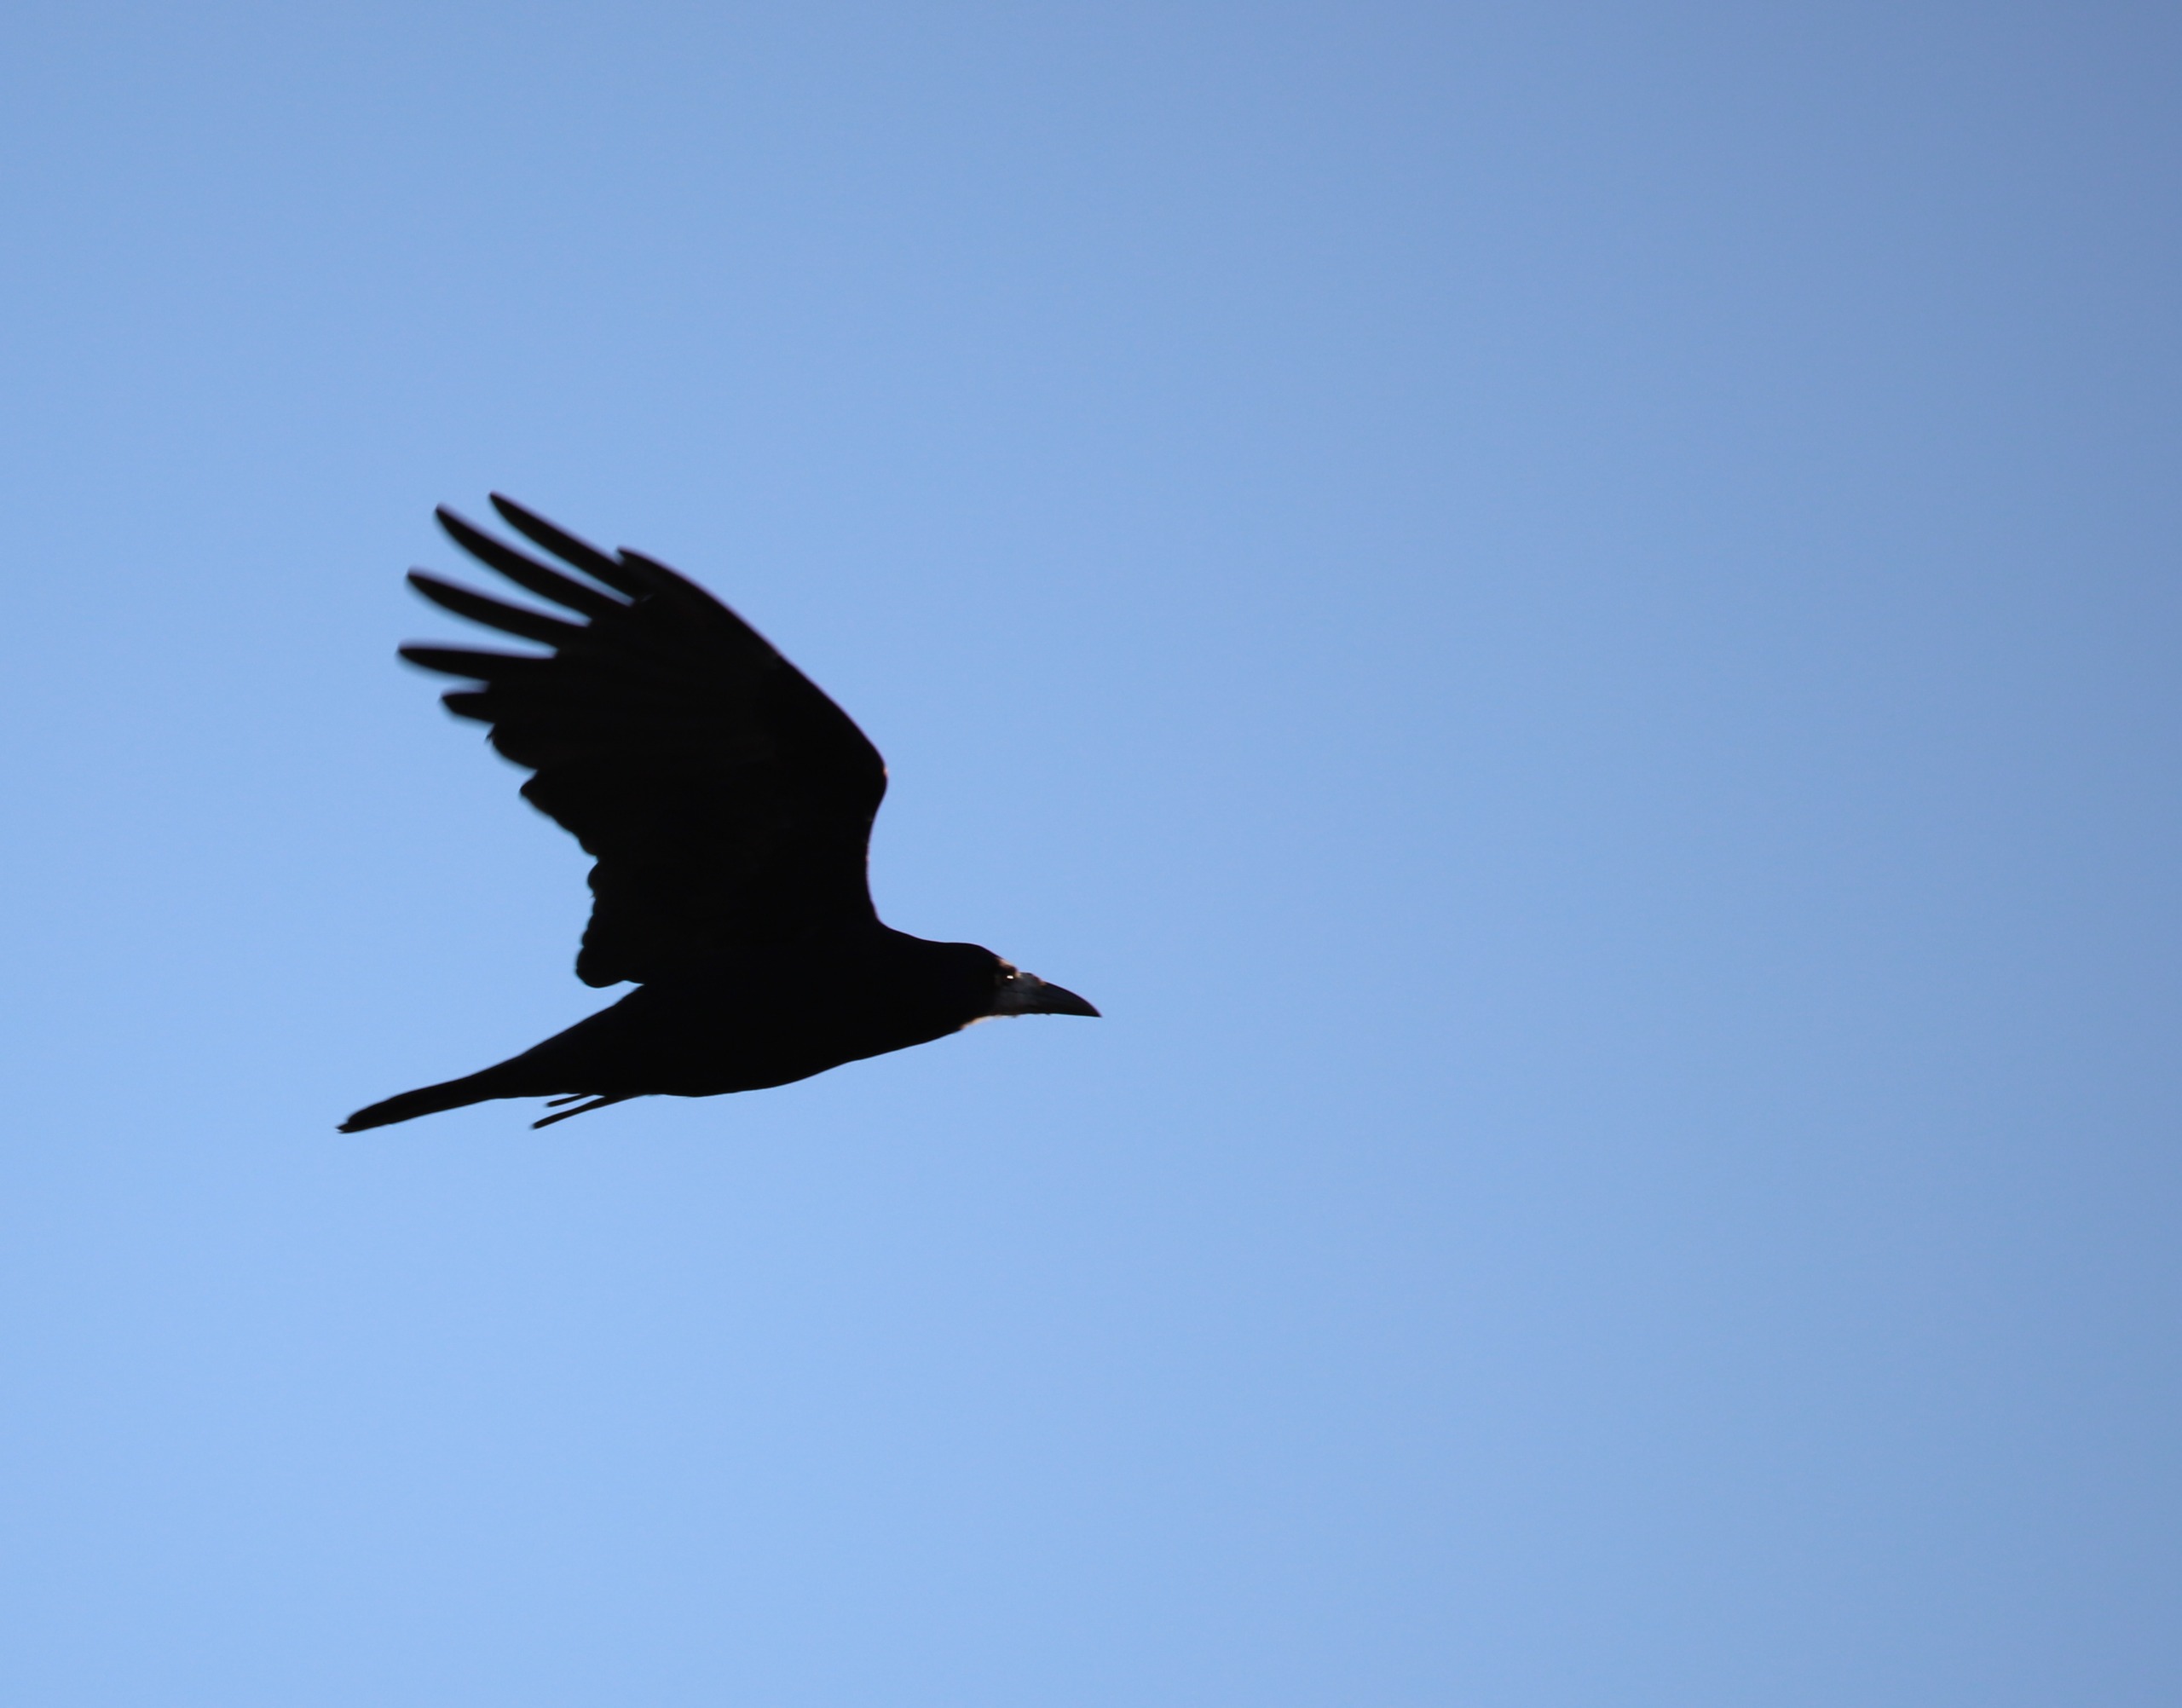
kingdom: Animalia
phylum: Chordata
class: Aves
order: Passeriformes
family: Corvidae
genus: Corvus
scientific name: Corvus frugilegus
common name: Råge
